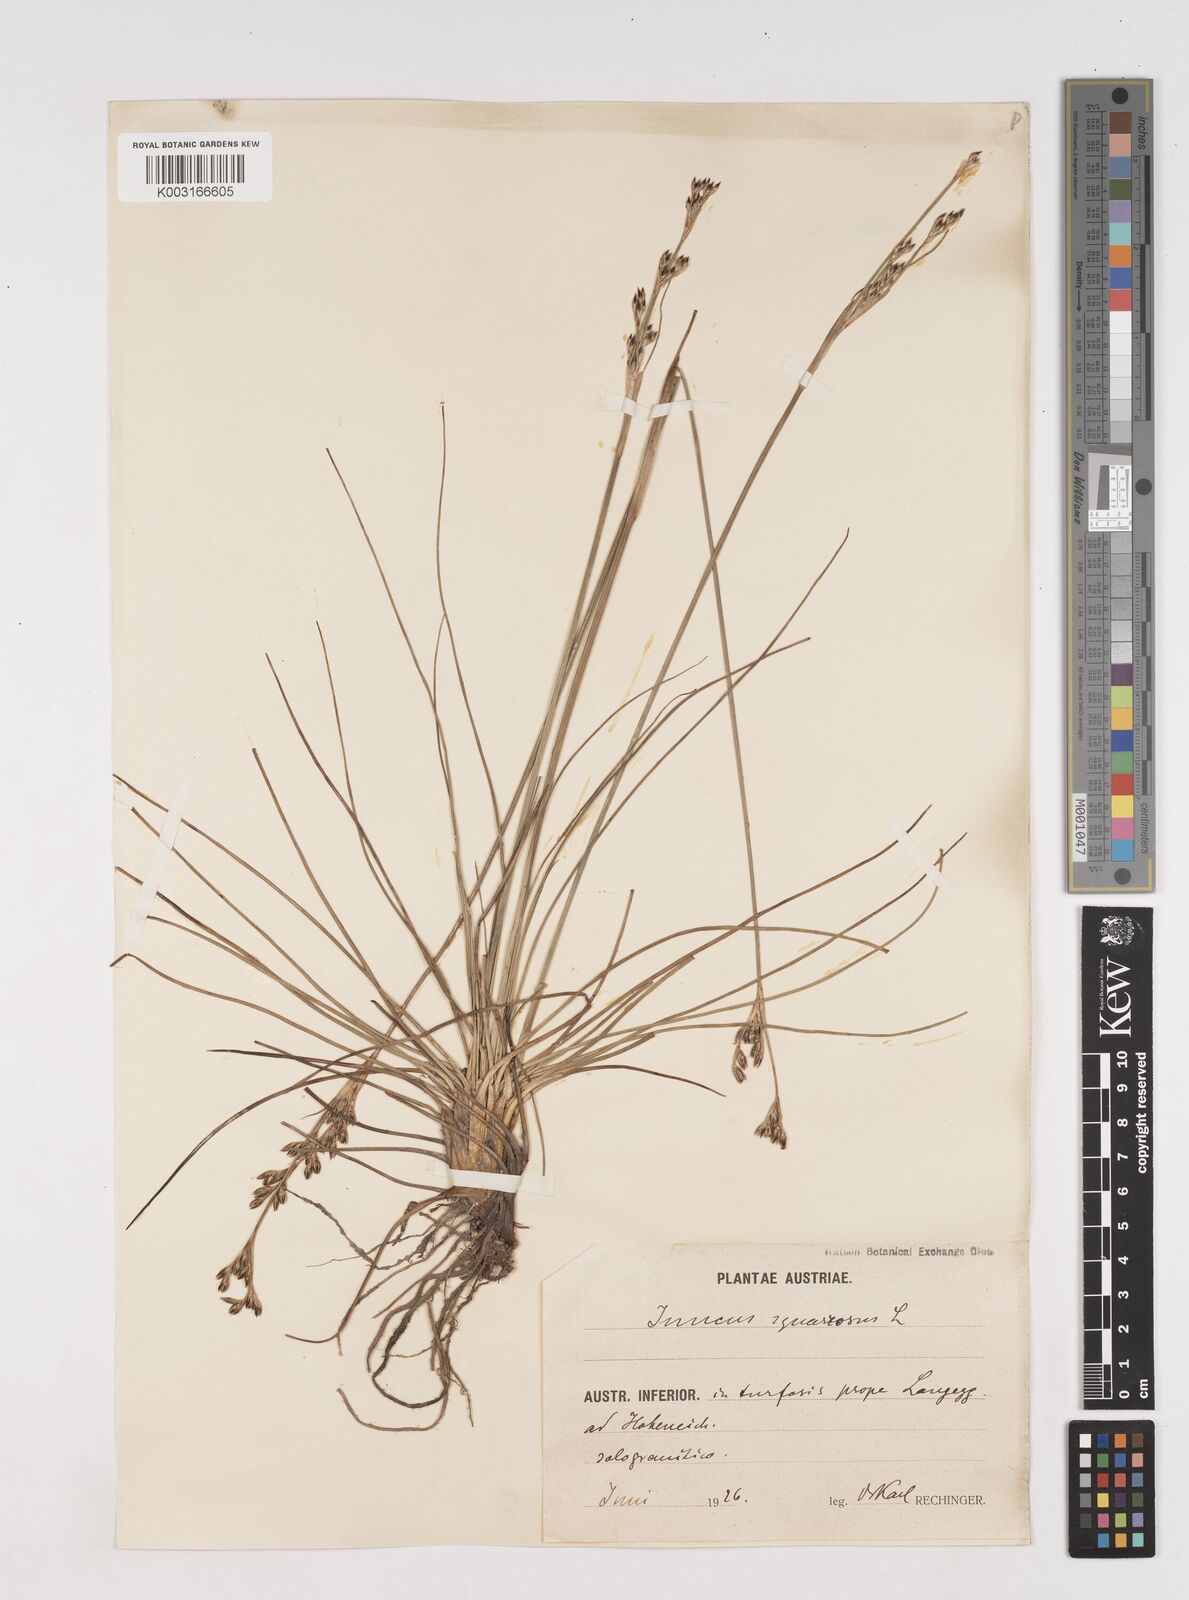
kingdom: Plantae
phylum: Tracheophyta
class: Liliopsida
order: Poales
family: Juncaceae
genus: Juncus
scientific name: Juncus squarrosus
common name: Heath rush
